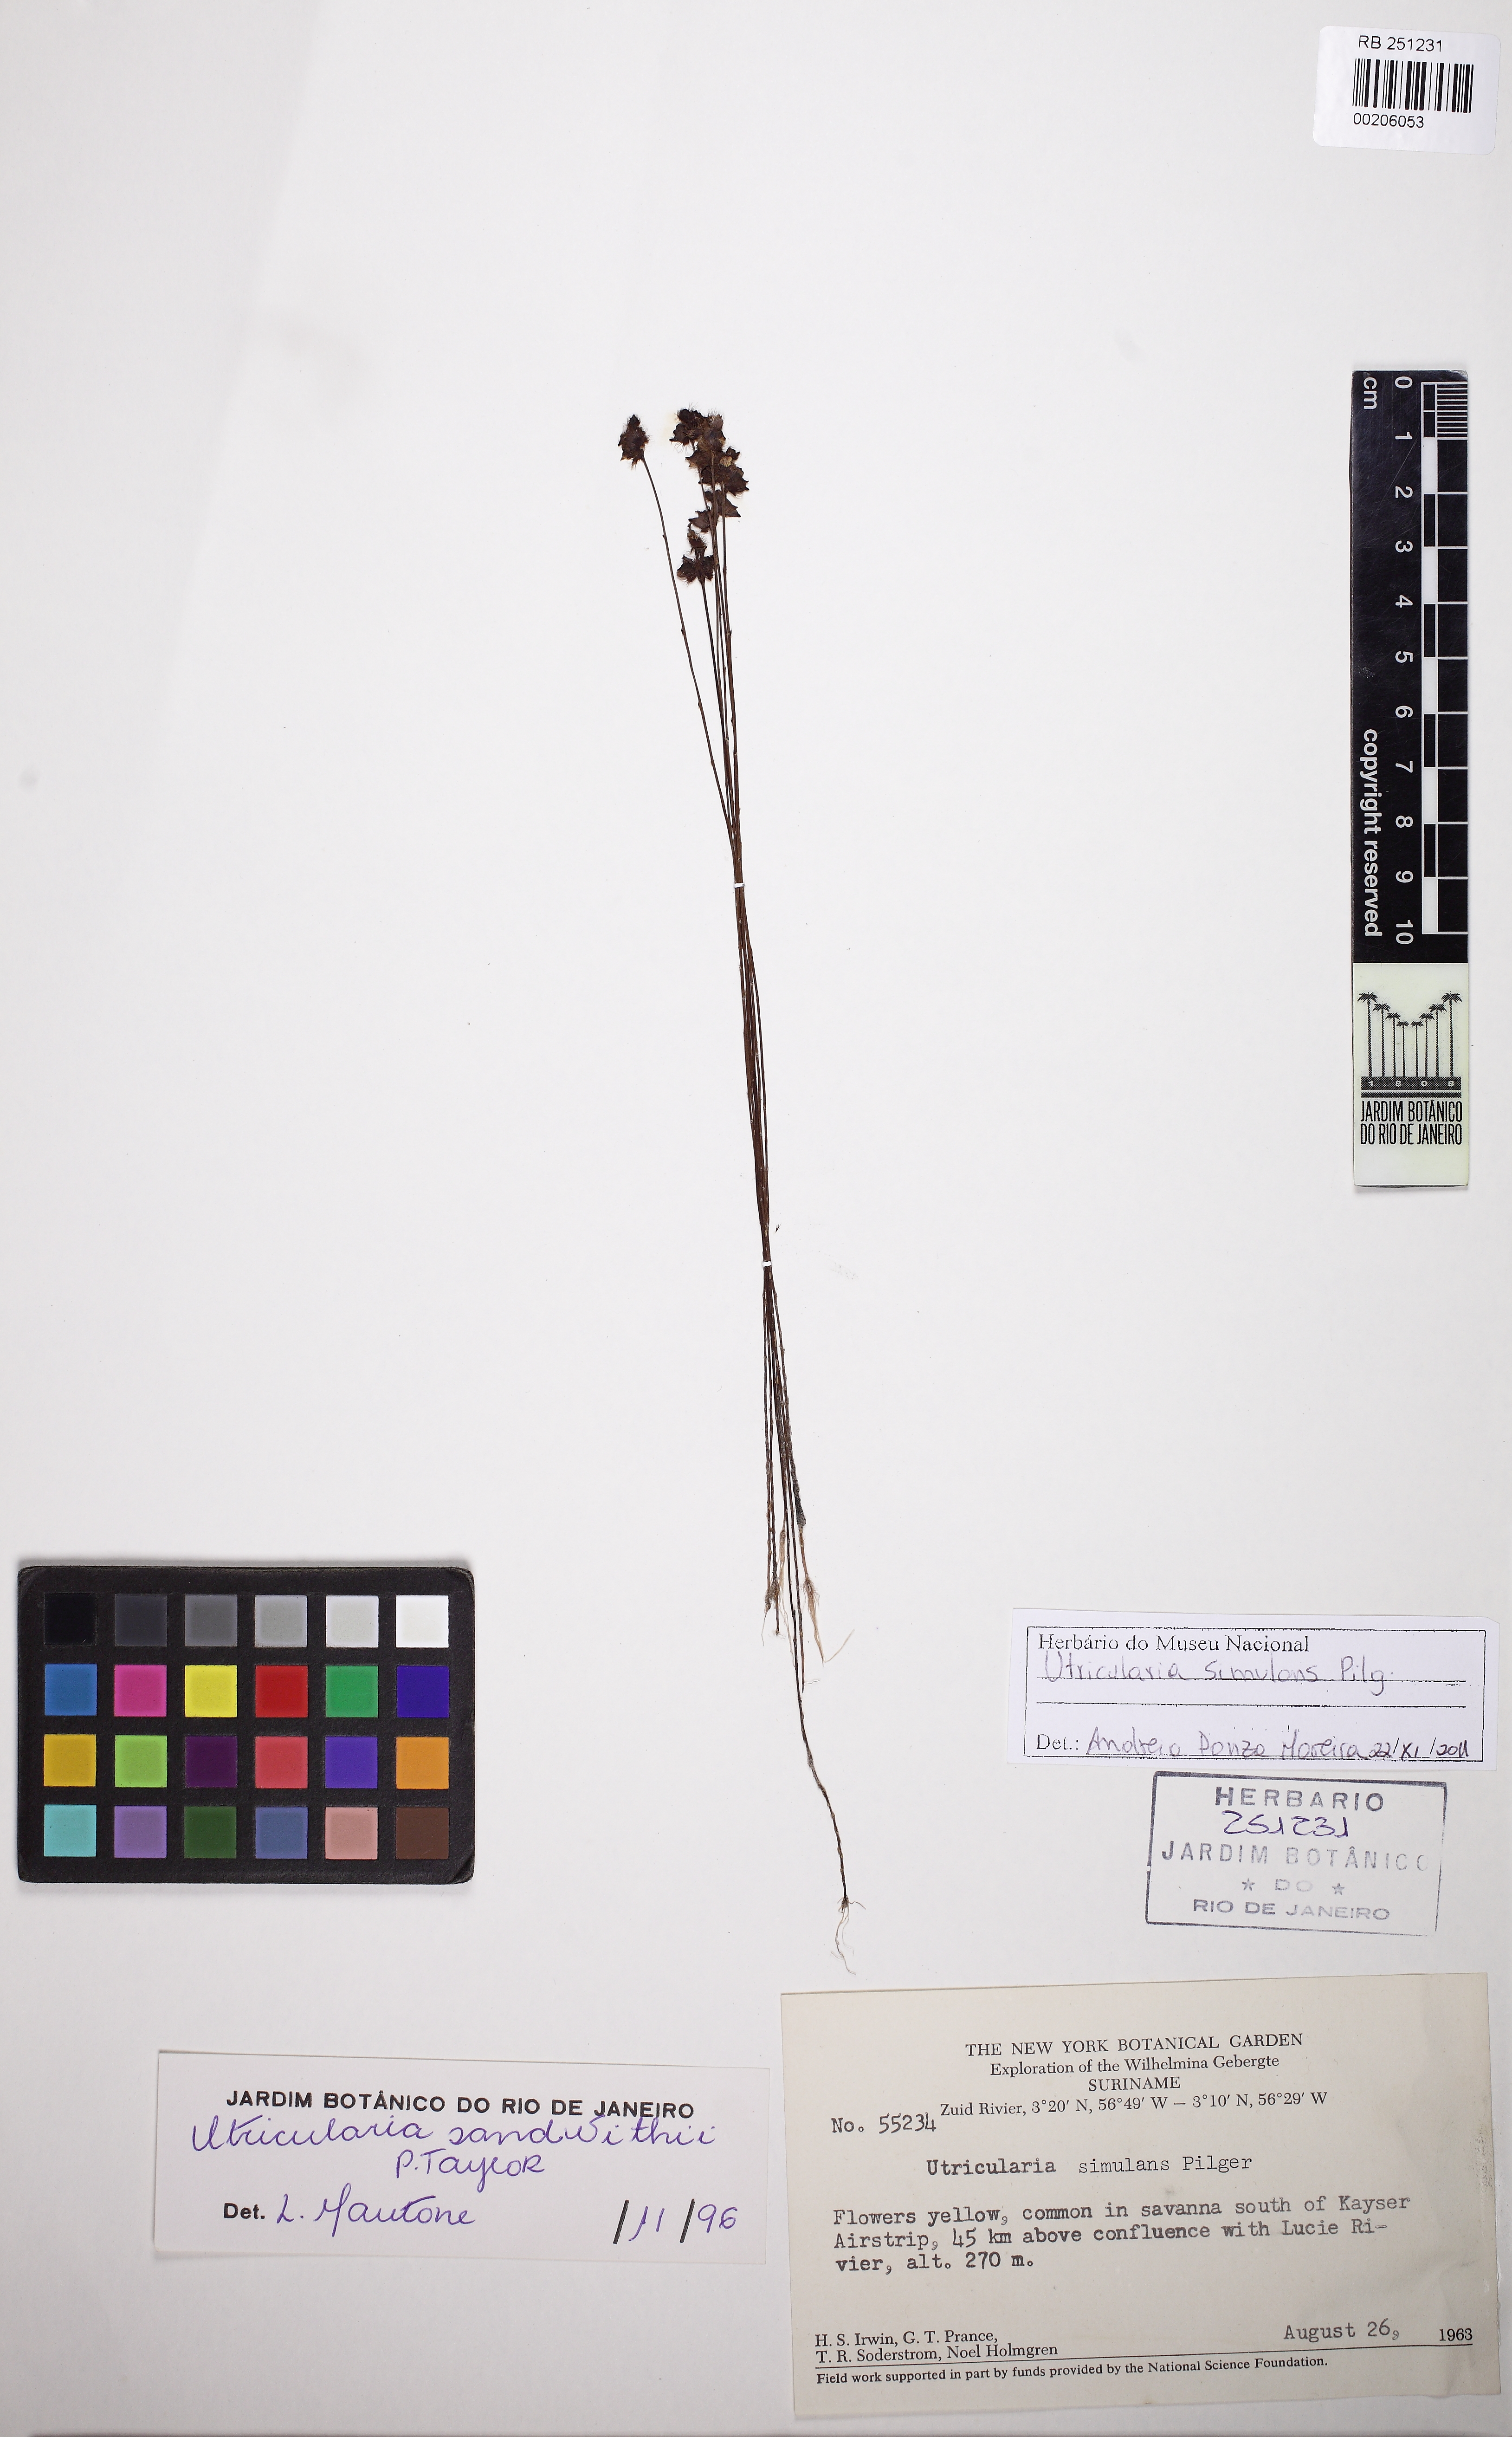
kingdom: Plantae
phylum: Tracheophyta
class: Magnoliopsida
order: Lamiales
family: Lentibulariaceae
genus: Utricularia
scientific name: Utricularia simulans
